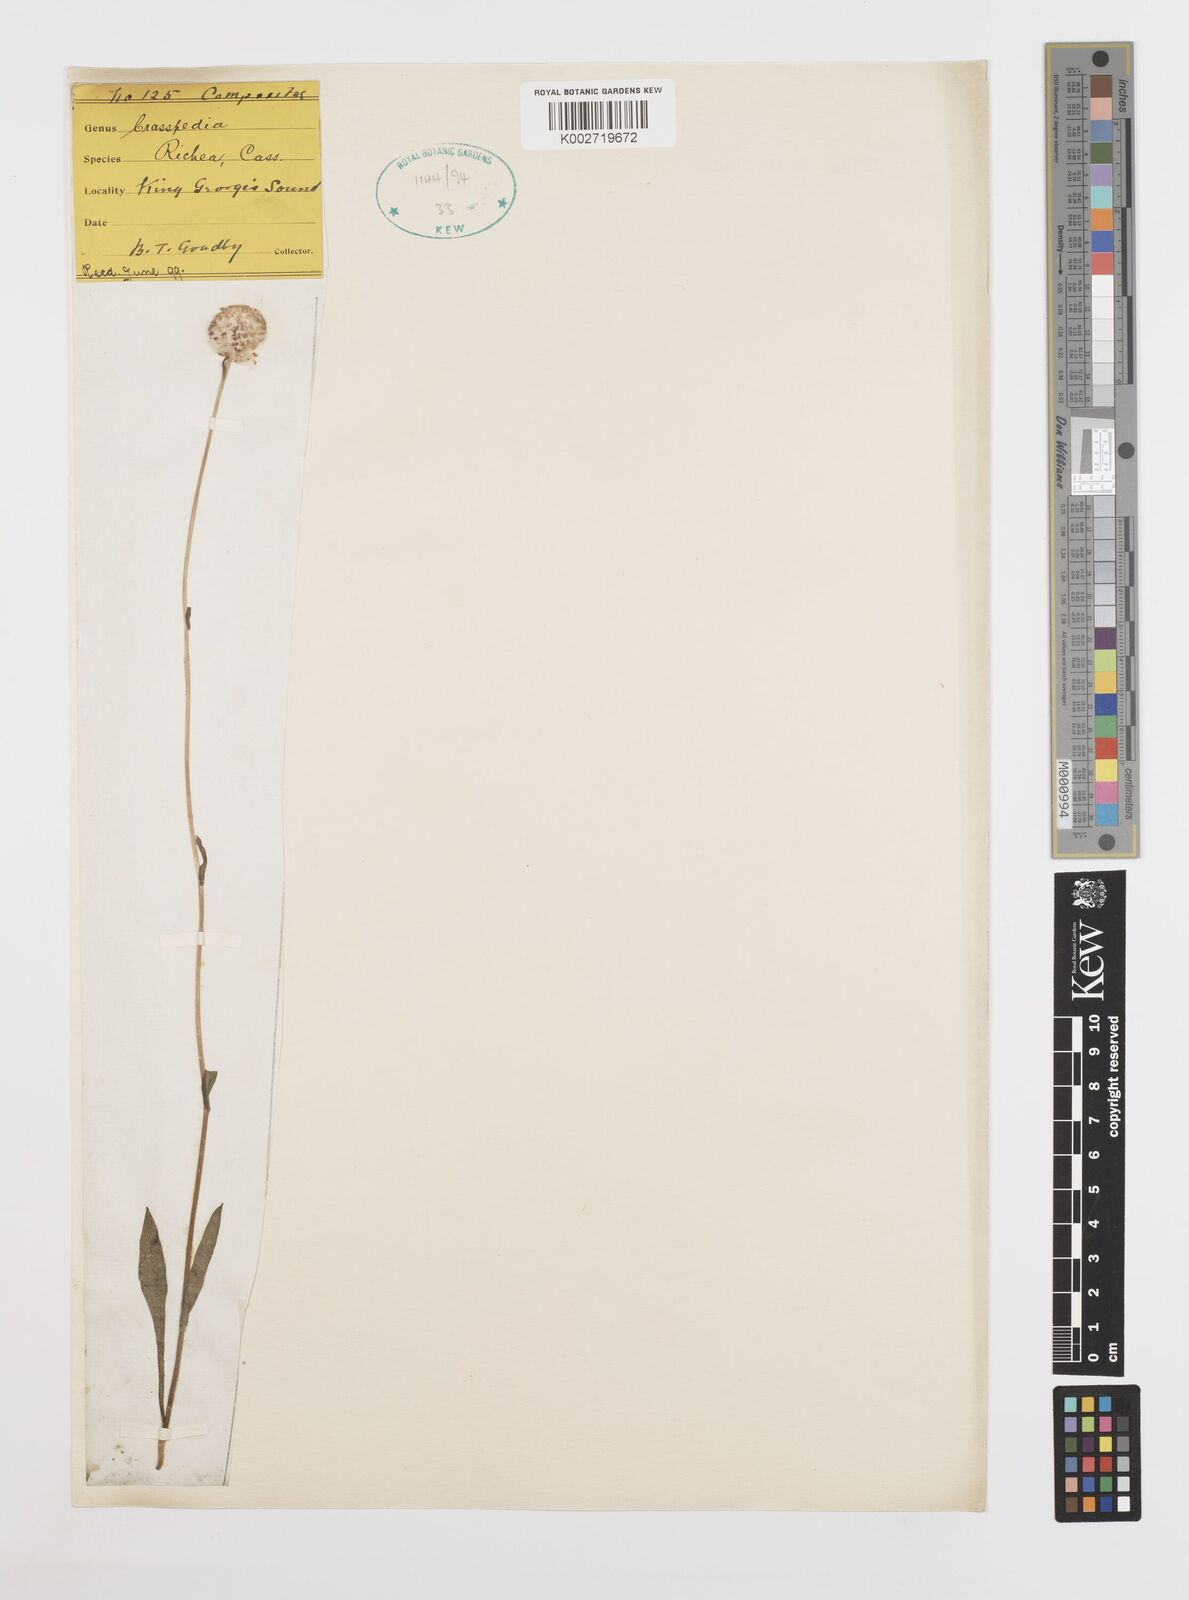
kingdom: Plantae
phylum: Tracheophyta
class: Magnoliopsida
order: Asterales
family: Asteraceae
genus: Craspedia
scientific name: Craspedia glauca
